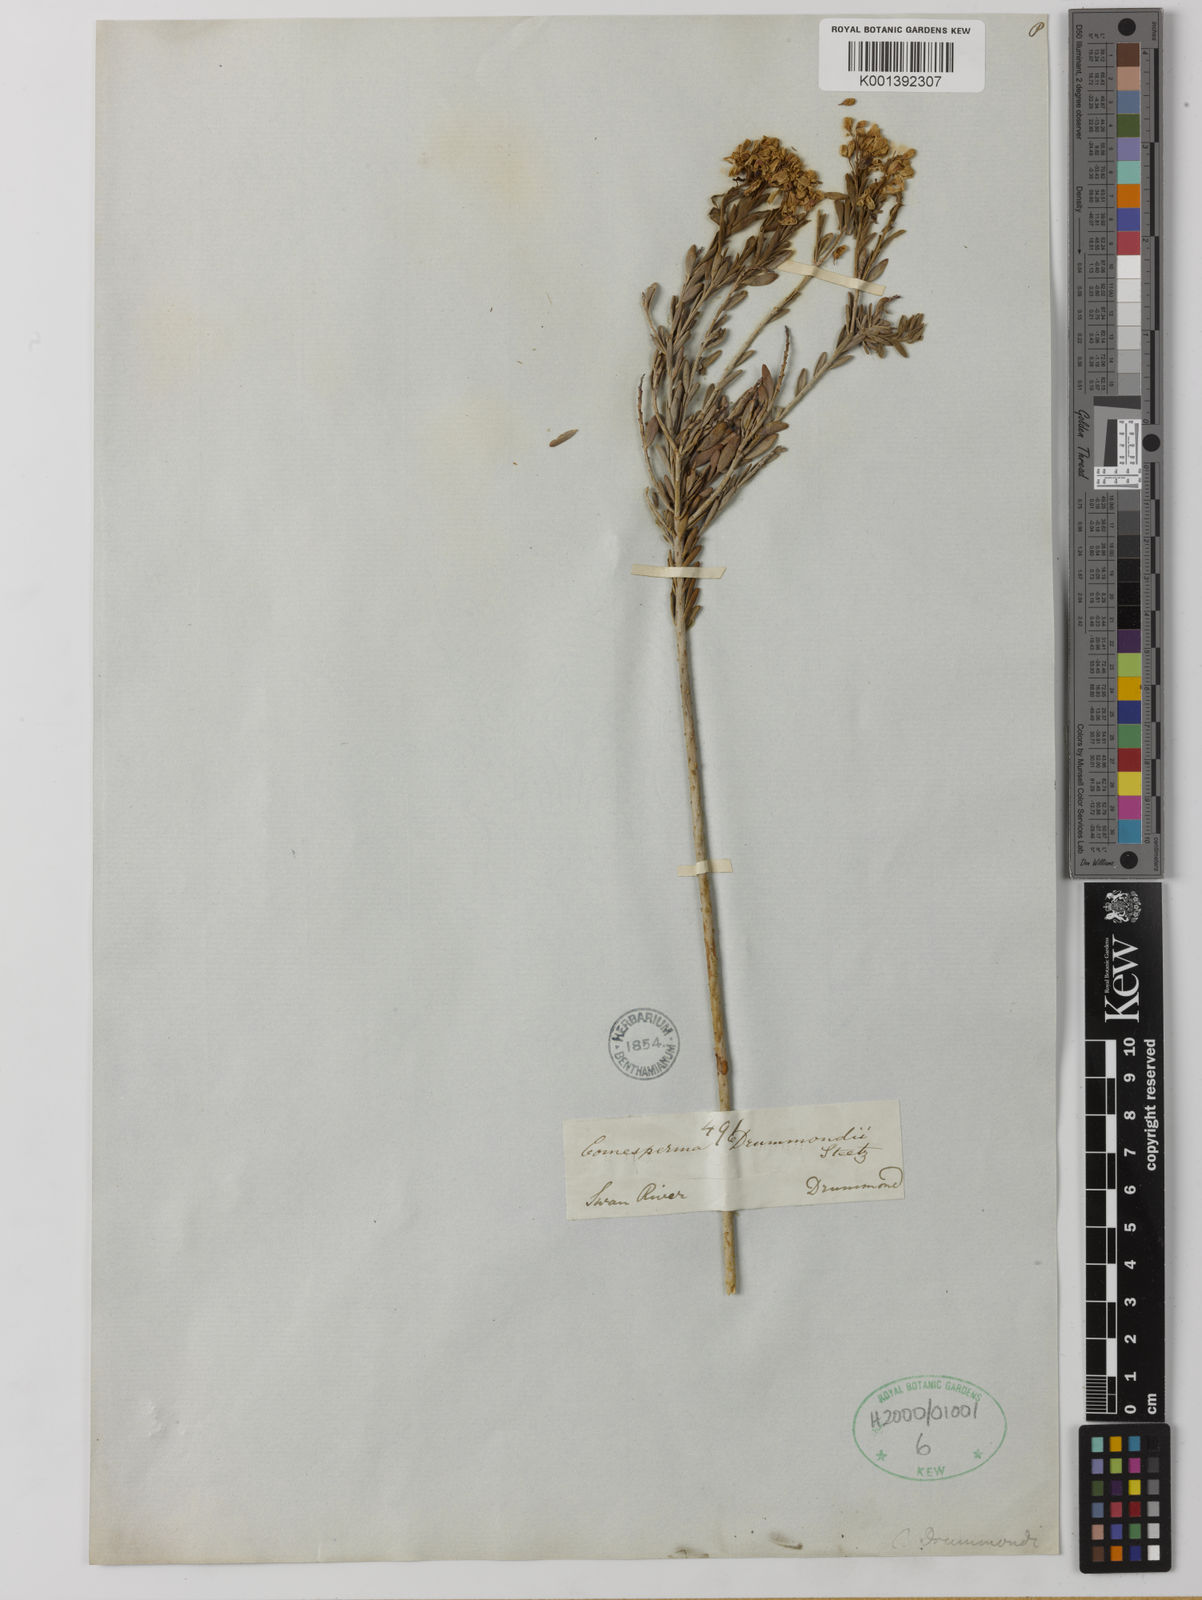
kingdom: Plantae
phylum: Tracheophyta
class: Magnoliopsida
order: Fabales
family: Polygalaceae
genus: Comesperma
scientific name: Comesperma drummondii
